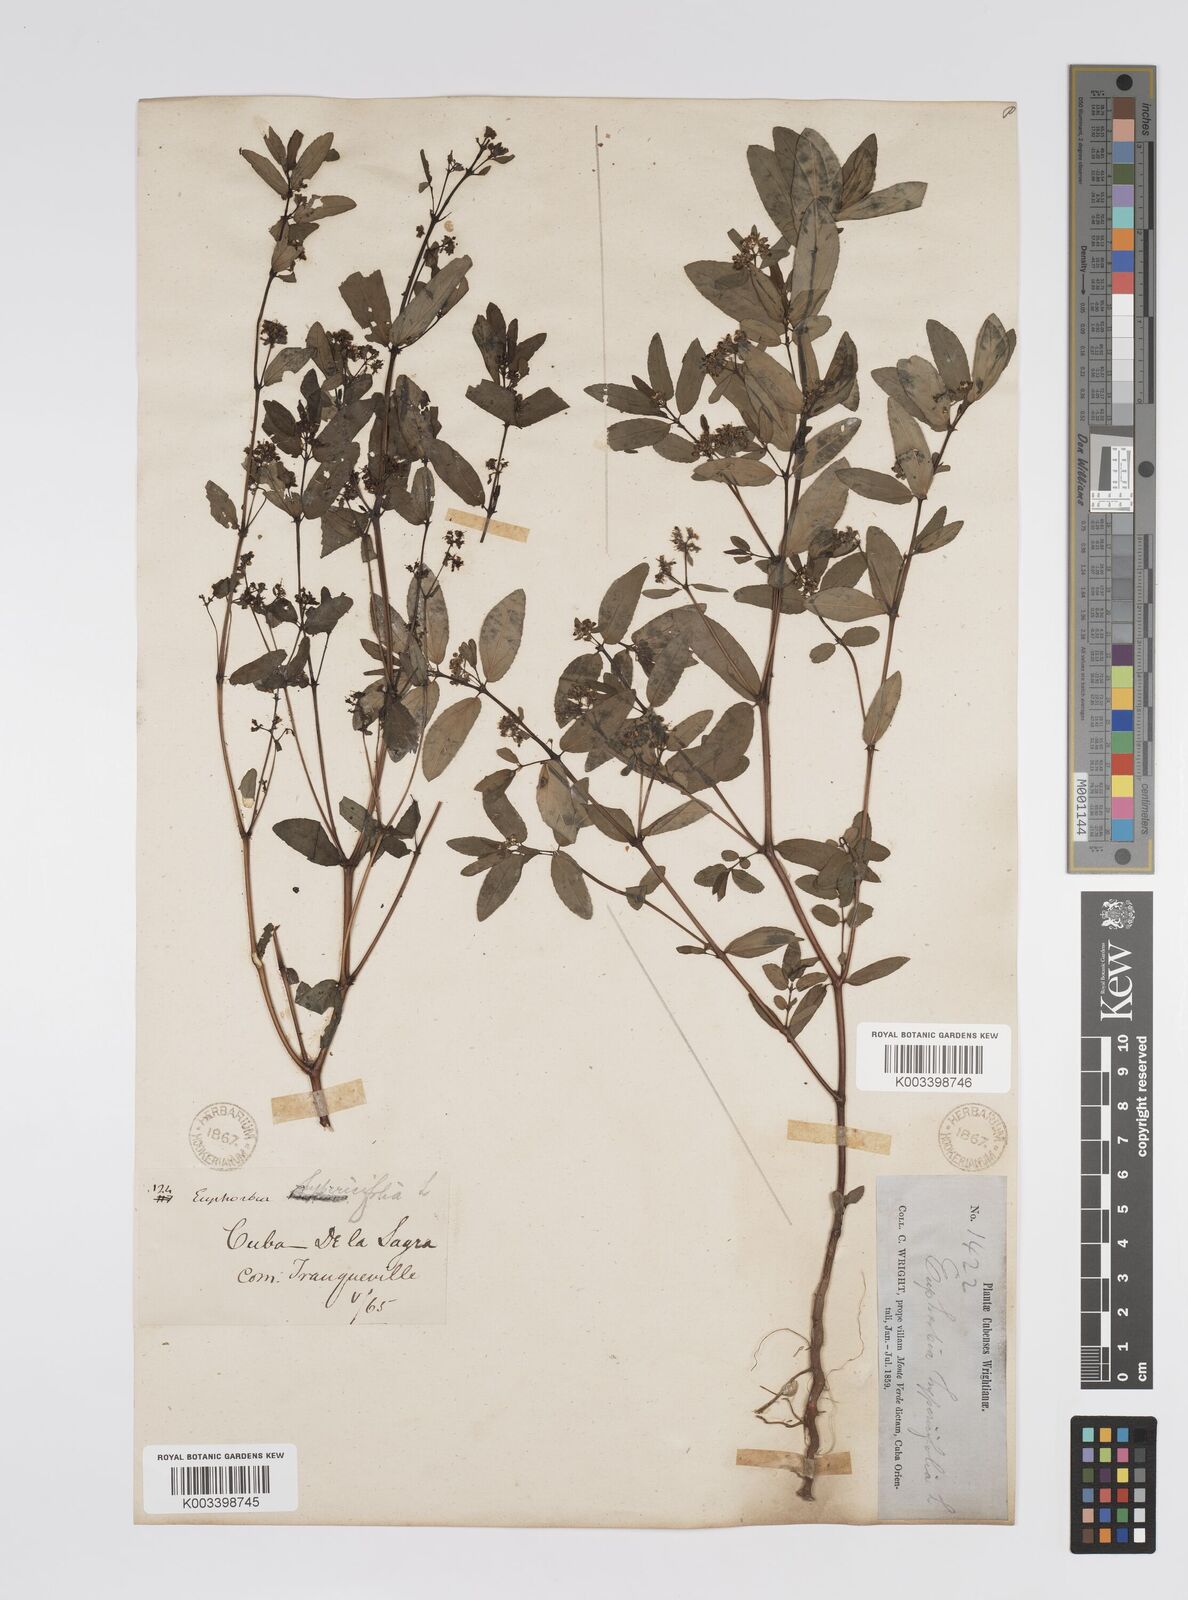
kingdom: Plantae
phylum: Tracheophyta
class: Magnoliopsida
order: Malpighiales
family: Euphorbiaceae
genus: Euphorbia
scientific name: Euphorbia
